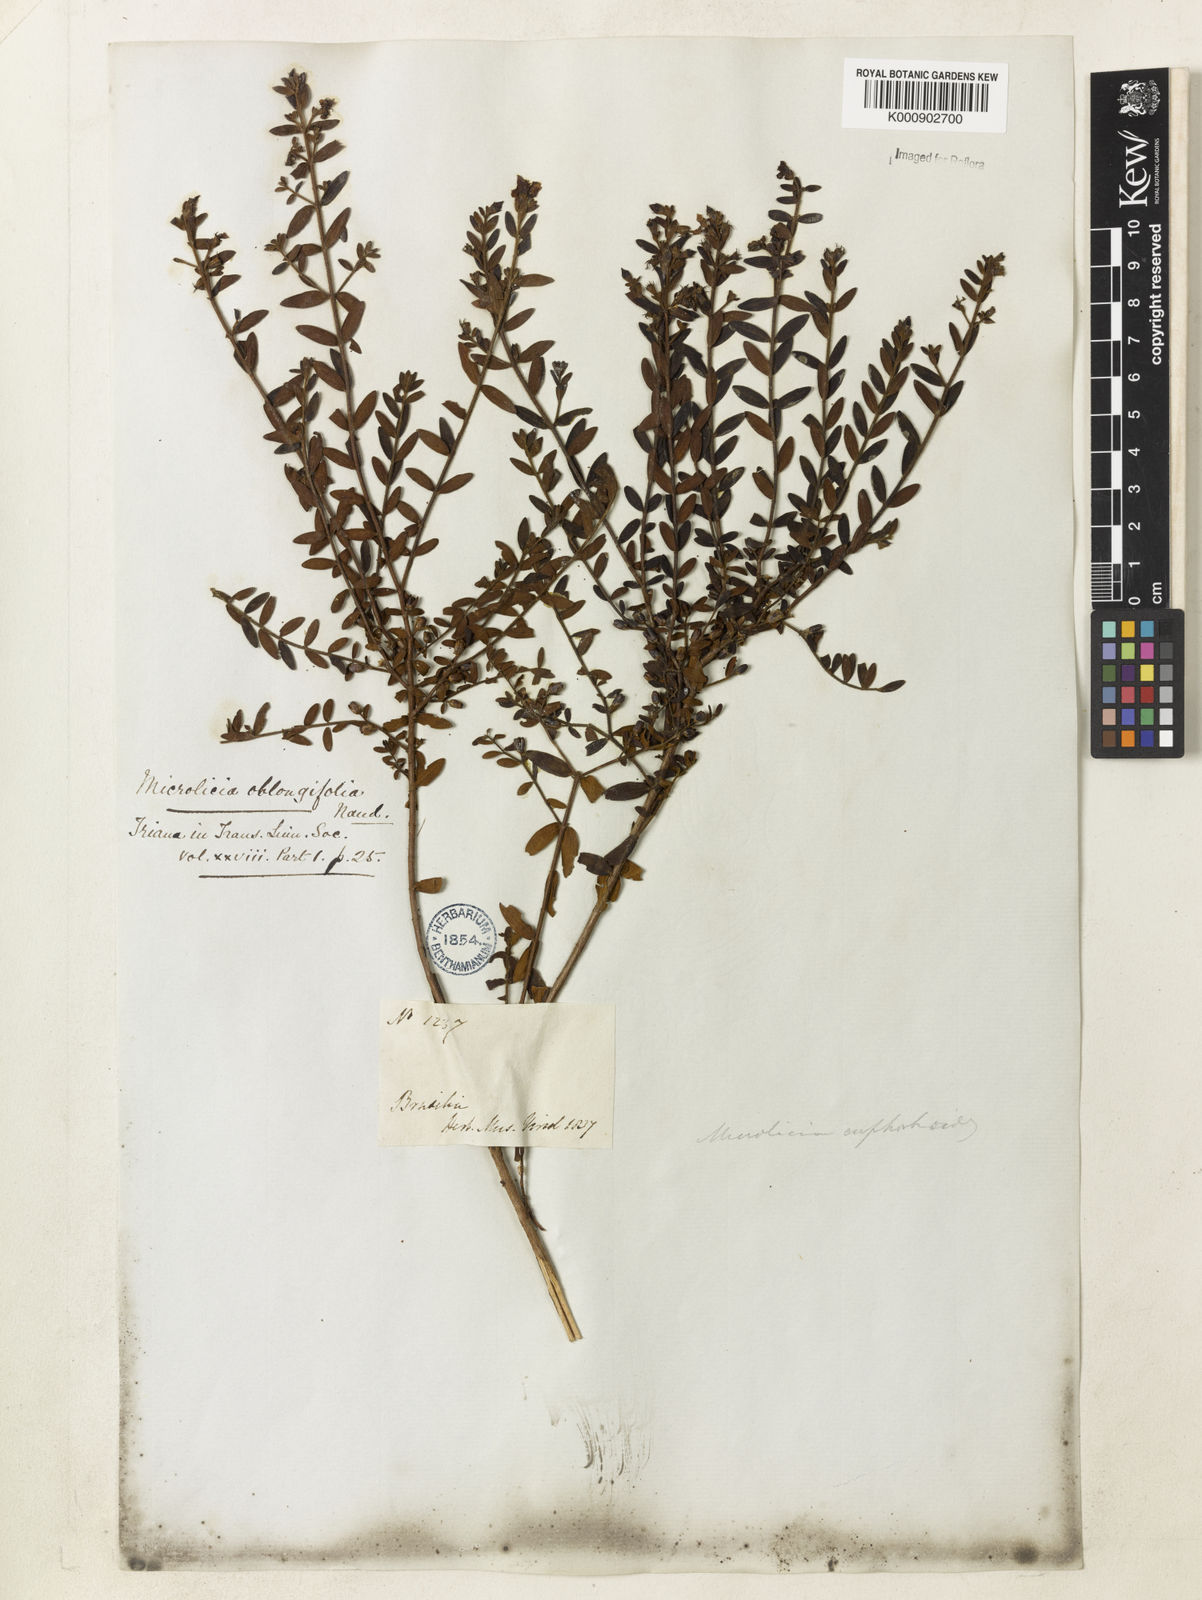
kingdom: Plantae
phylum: Tracheophyta
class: Magnoliopsida
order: Myrtales
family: Melastomataceae
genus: Microlicia
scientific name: Microlicia euphorbioides
